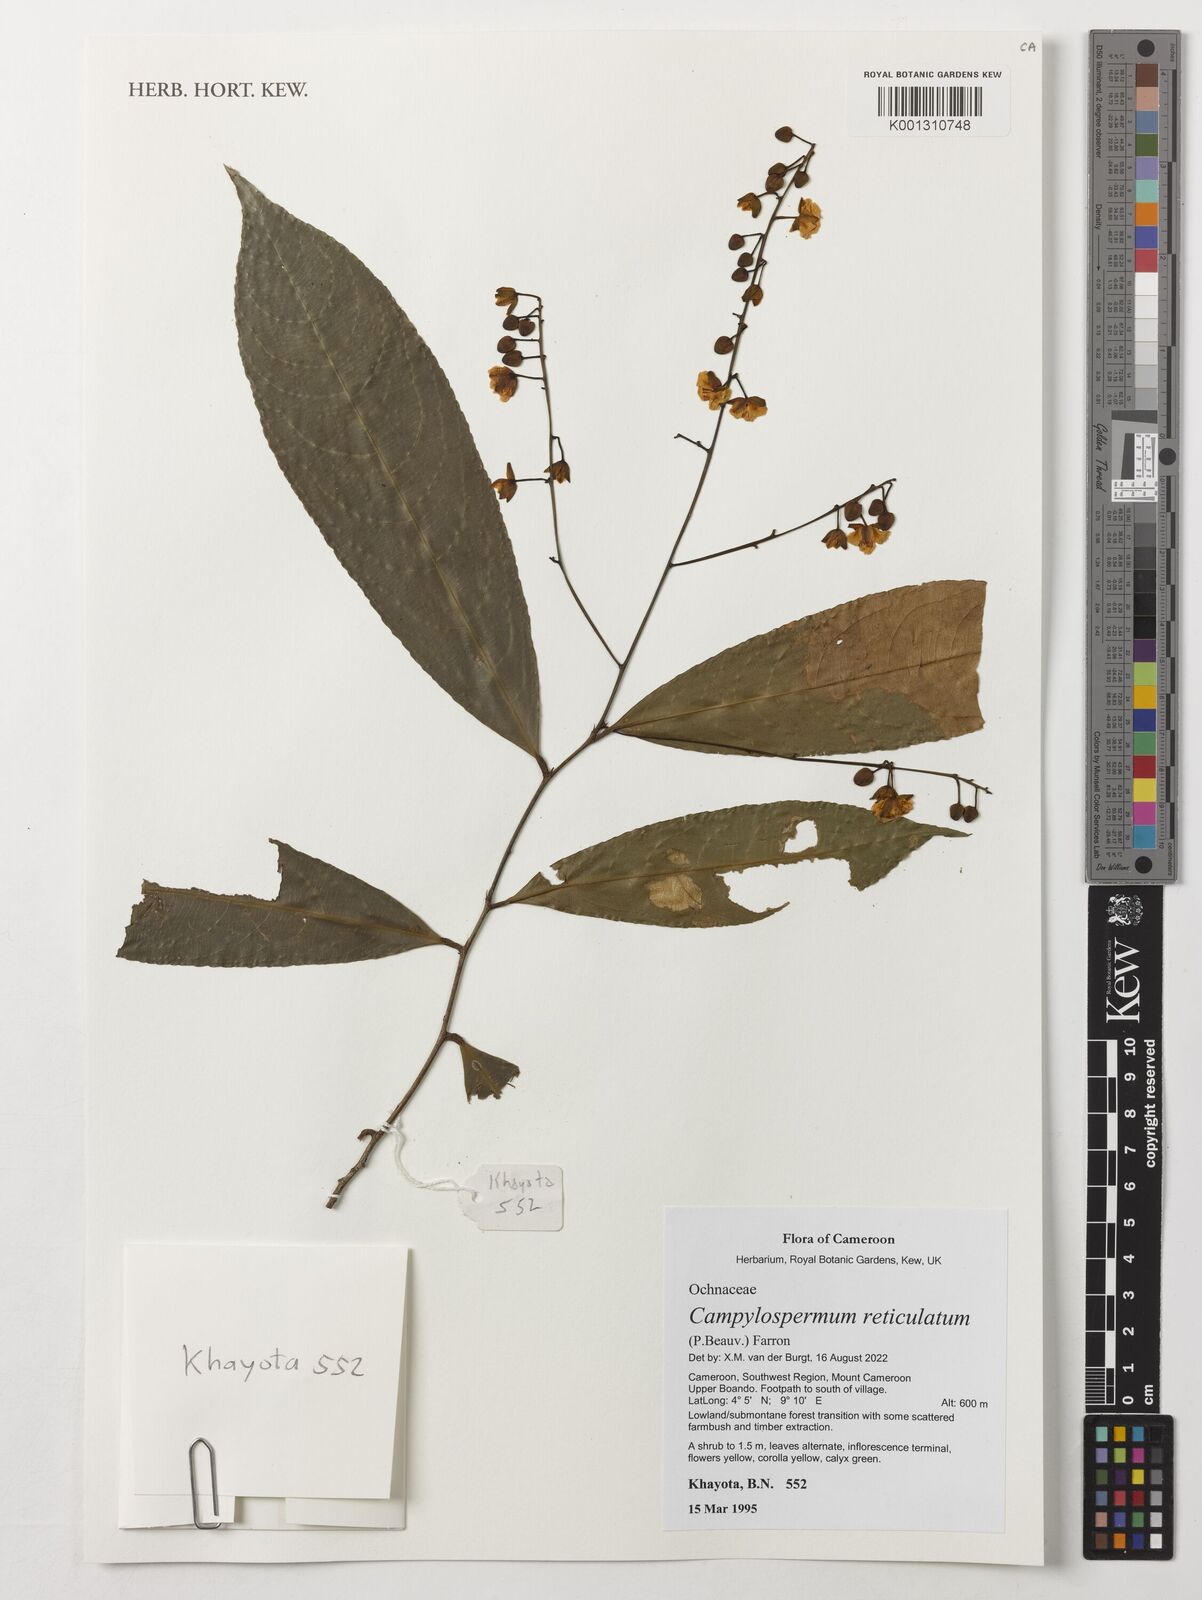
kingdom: Plantae
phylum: Tracheophyta
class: Magnoliopsida
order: Malpighiales
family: Ochnaceae
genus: Campylospermum
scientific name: Campylospermum reticulatum
